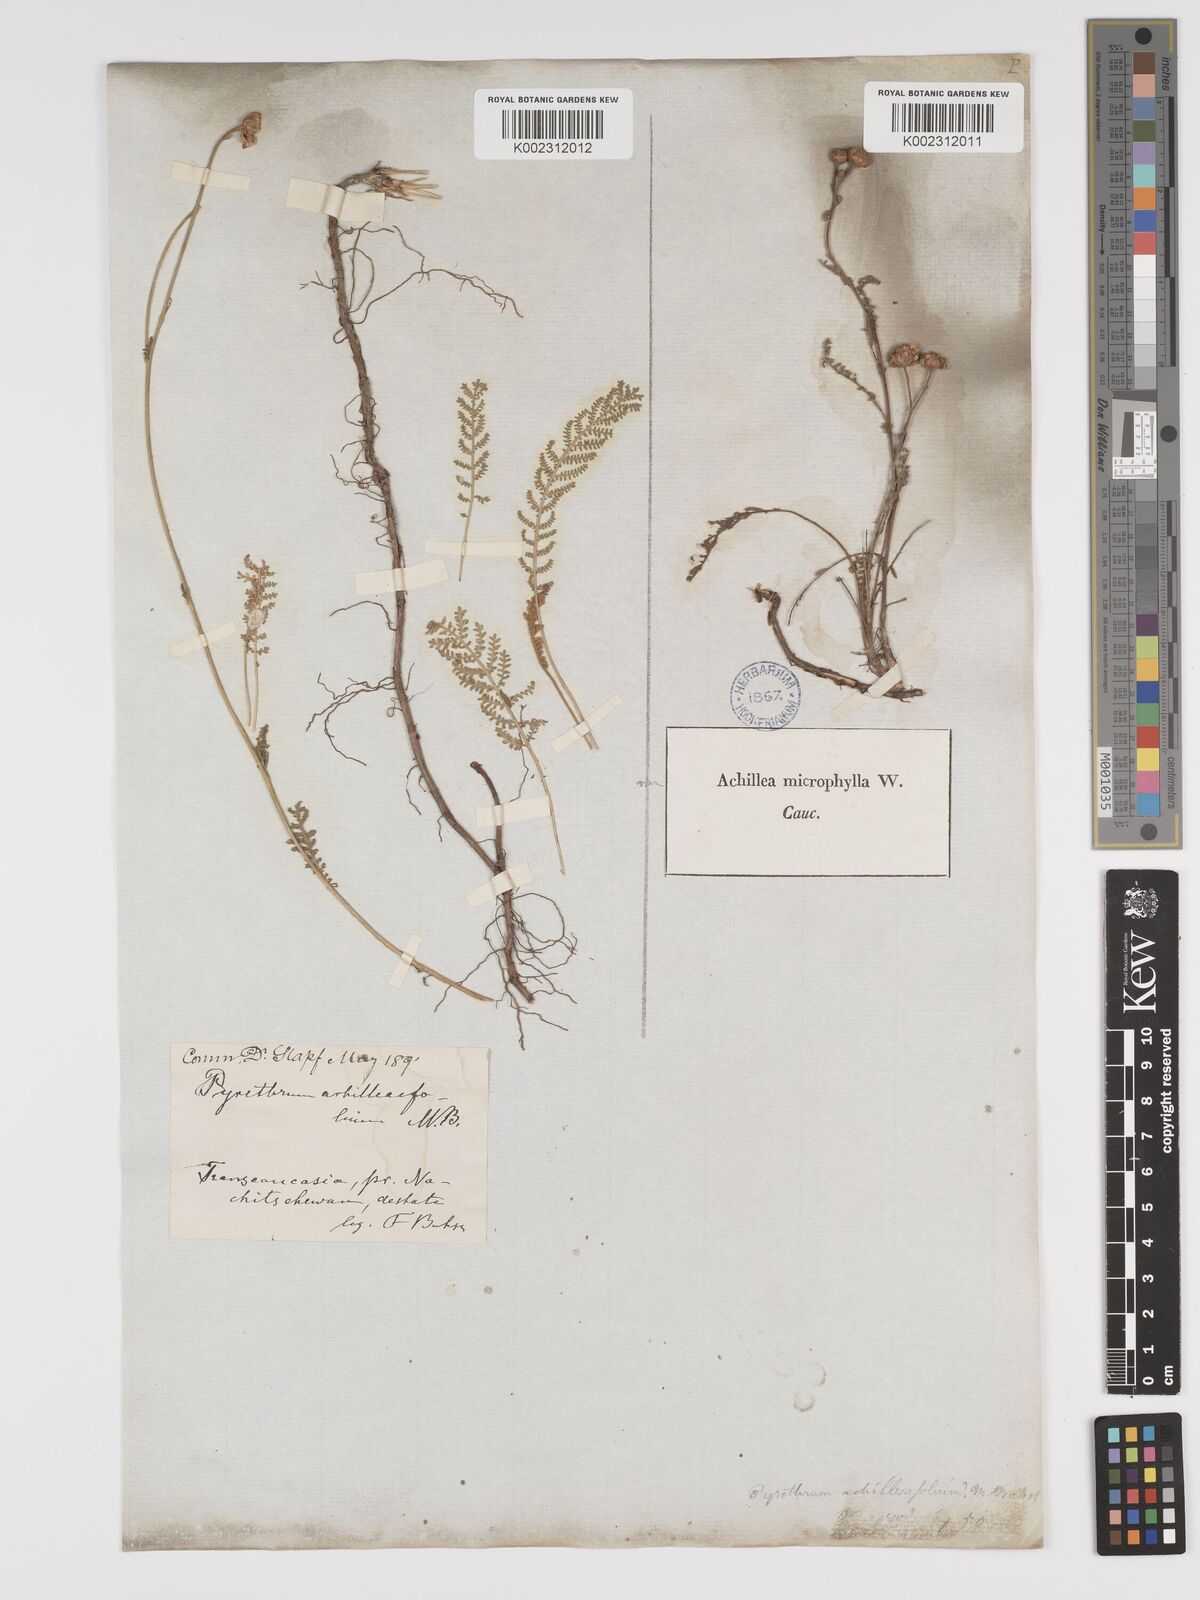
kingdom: Plantae
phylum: Tracheophyta
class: Magnoliopsida
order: Asterales
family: Asteraceae
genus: Tanacetum
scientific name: Tanacetum achilleifolium
